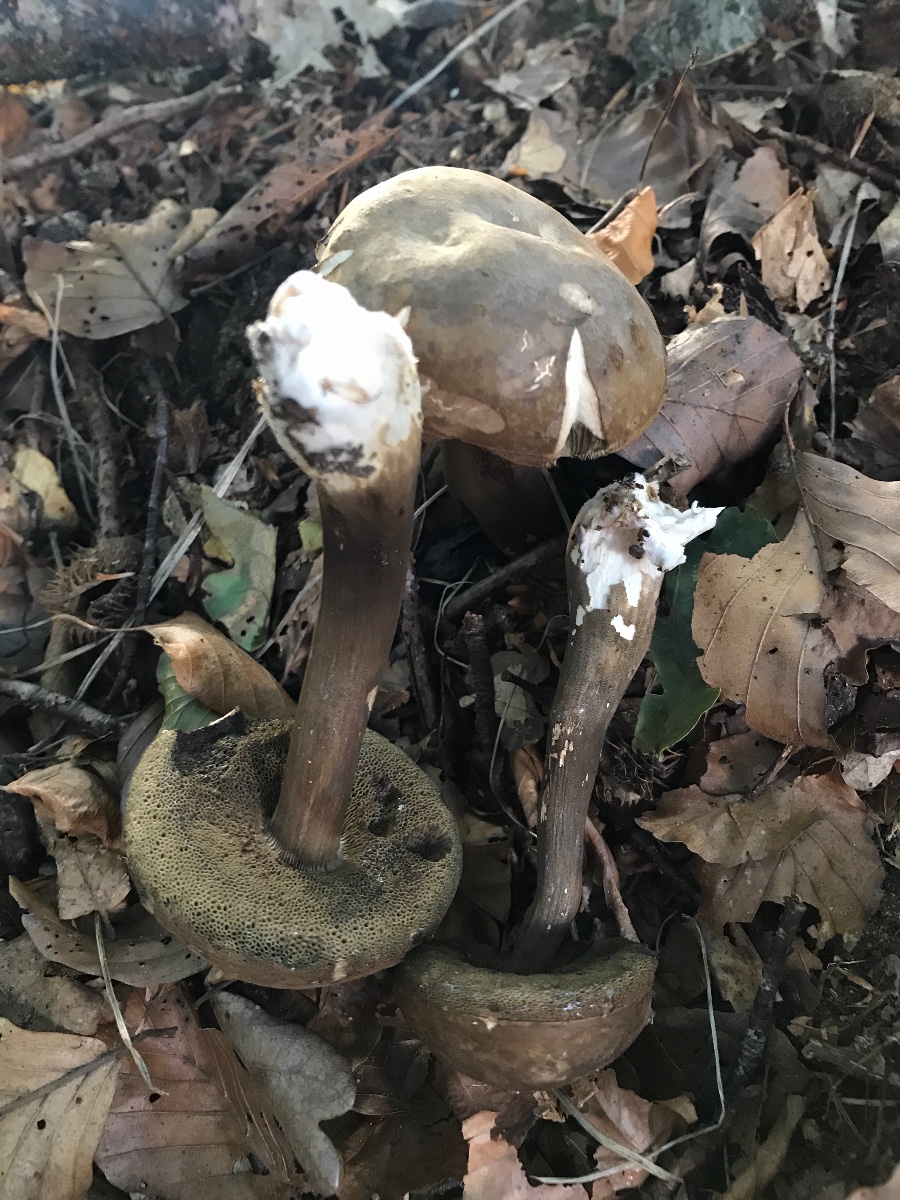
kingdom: Fungi
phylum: Basidiomycota
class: Agaricomycetes
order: Boletales
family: Boletaceae
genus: Porphyrellus
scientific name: Porphyrellus porphyrosporus
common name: sodrørhat
